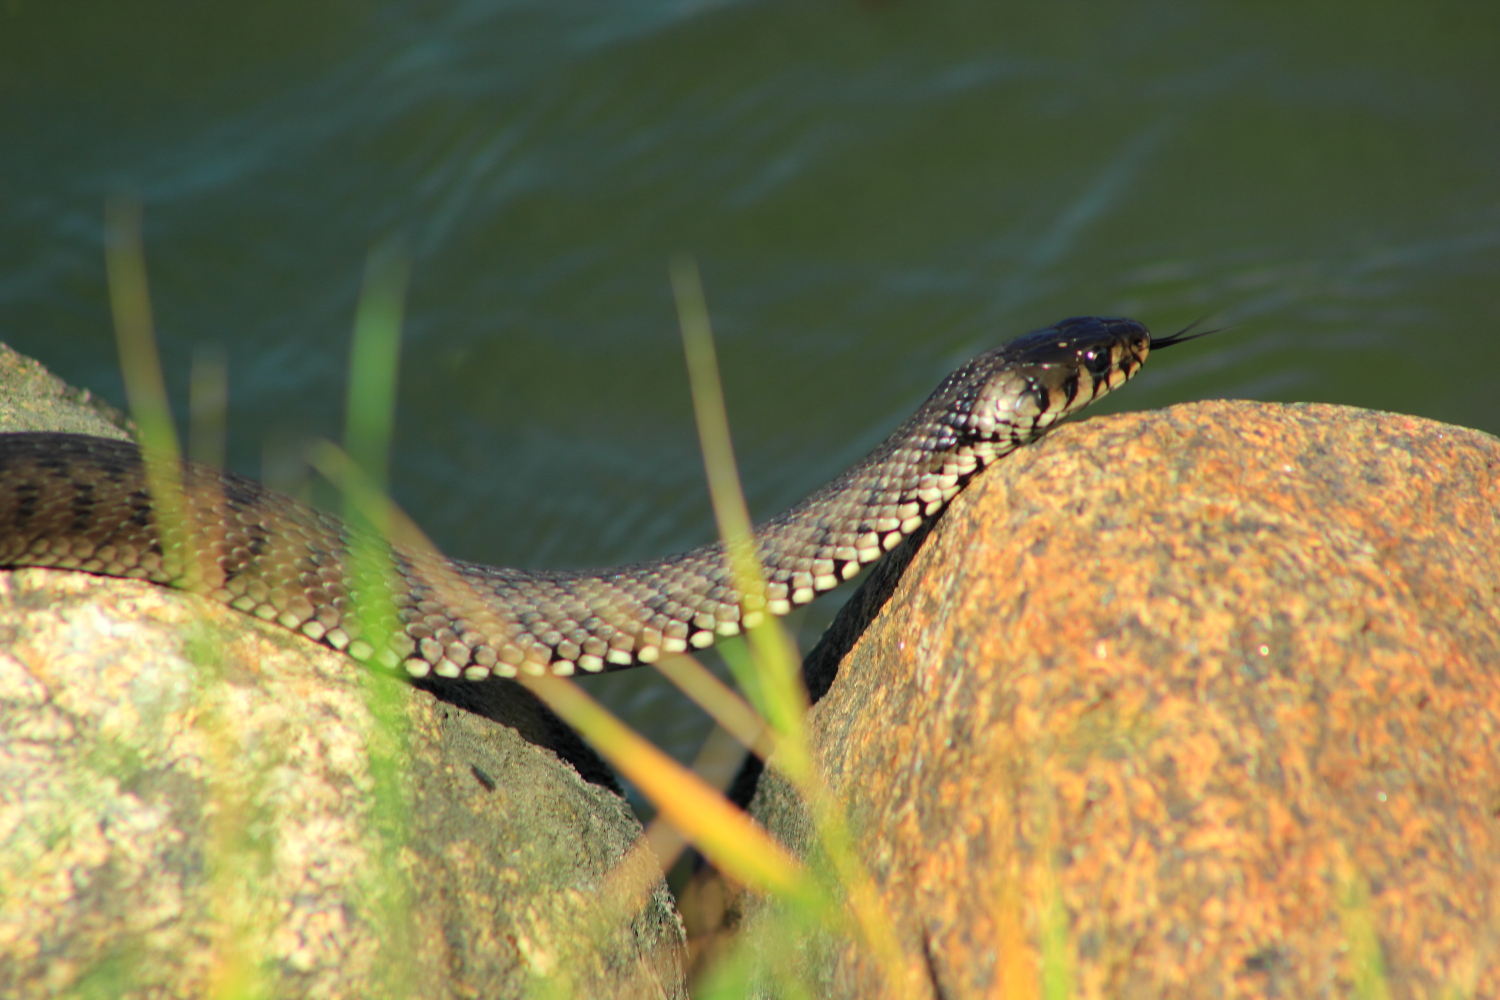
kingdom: Animalia
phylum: Chordata
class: Squamata
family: Colubridae
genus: Natrix
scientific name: Natrix natrix
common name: Grass snake
